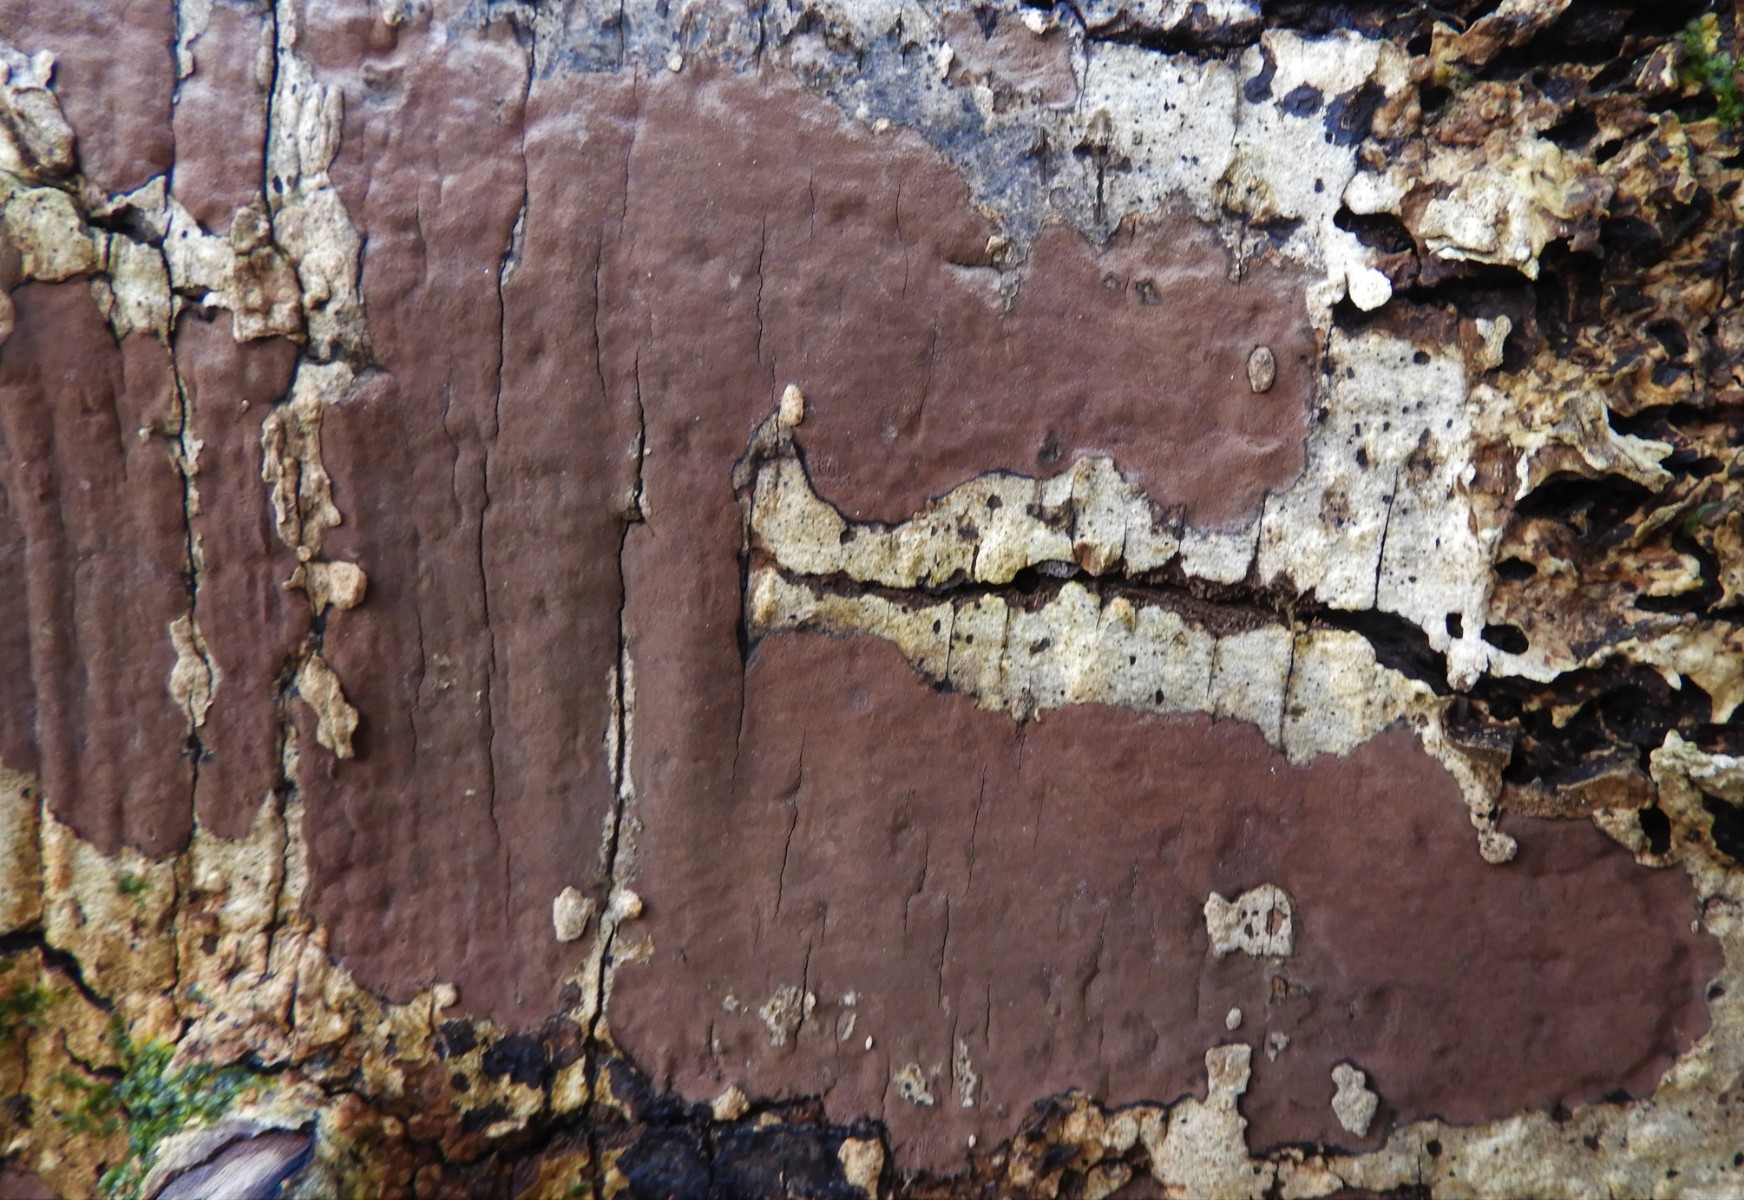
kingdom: Fungi
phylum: Ascomycota
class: Sordariomycetes
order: Xylariales
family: Hypoxylaceae
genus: Hypoxylon
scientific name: Hypoxylon petriniae
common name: nedsænket kulbær
